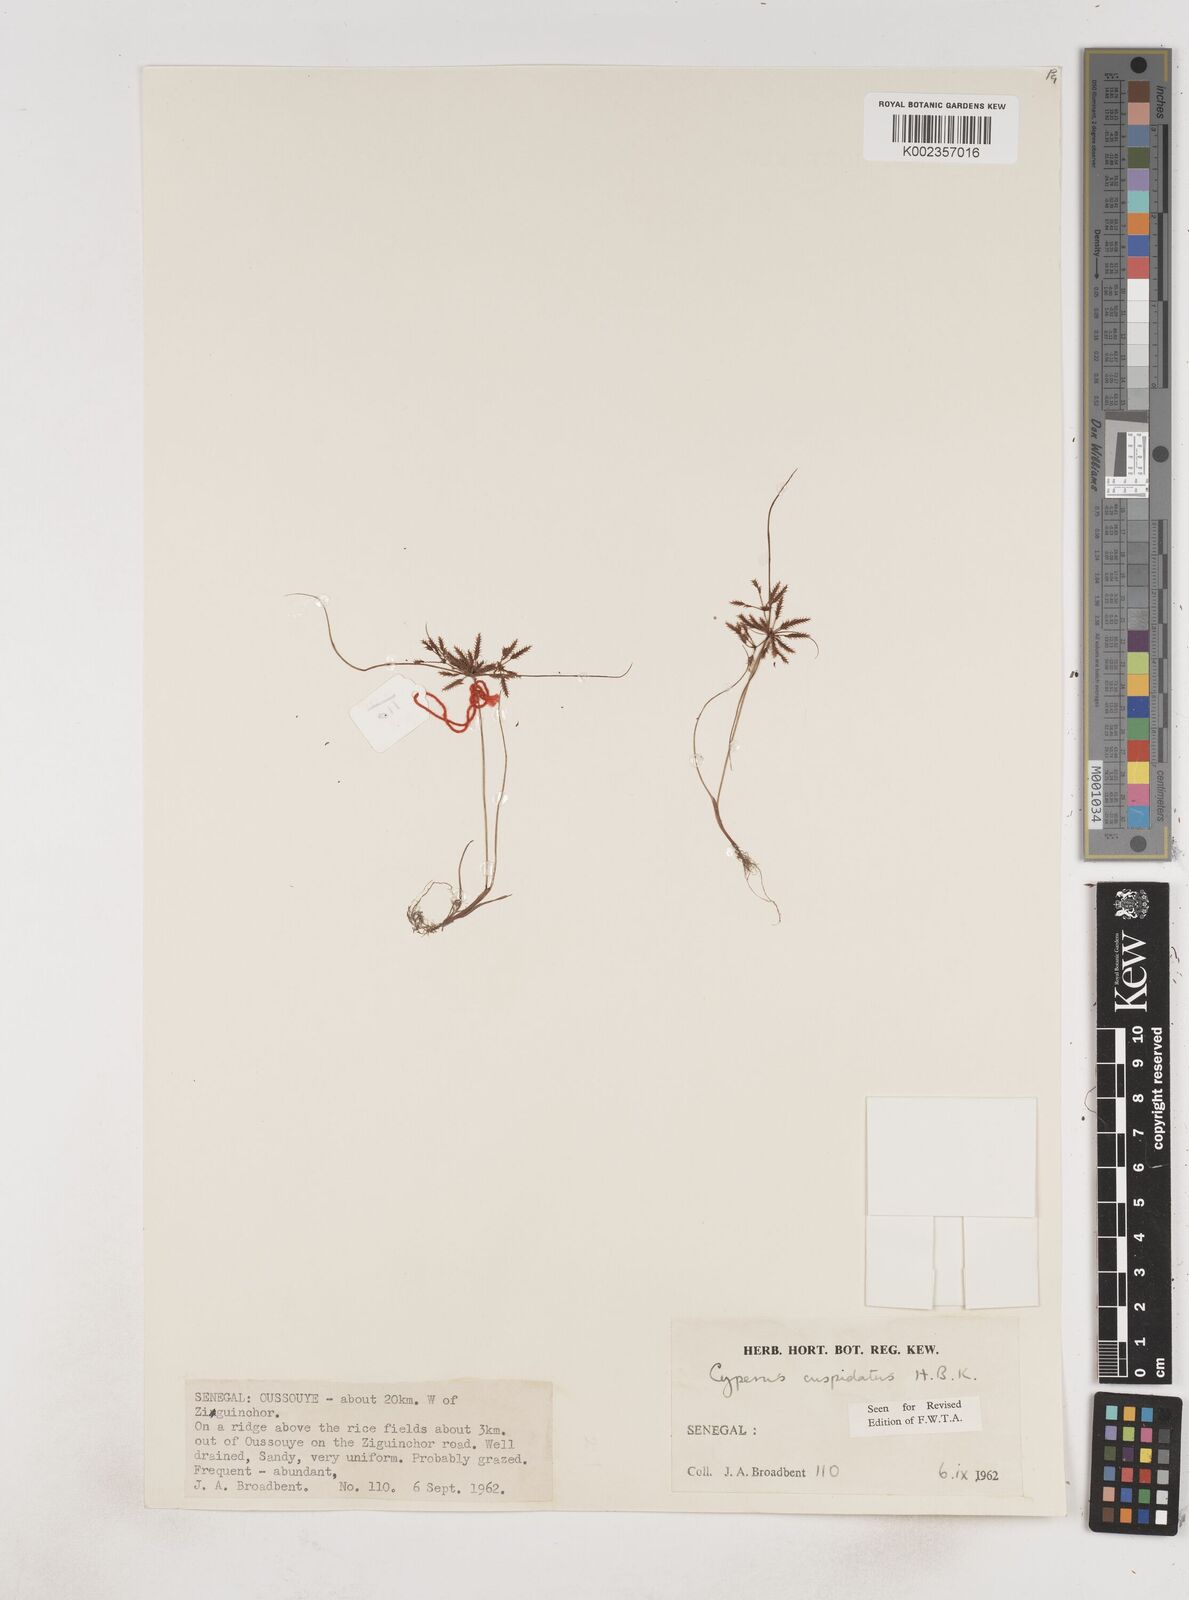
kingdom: Plantae
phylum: Tracheophyta
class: Liliopsida
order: Poales
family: Cyperaceae
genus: Cyperus
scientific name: Cyperus
